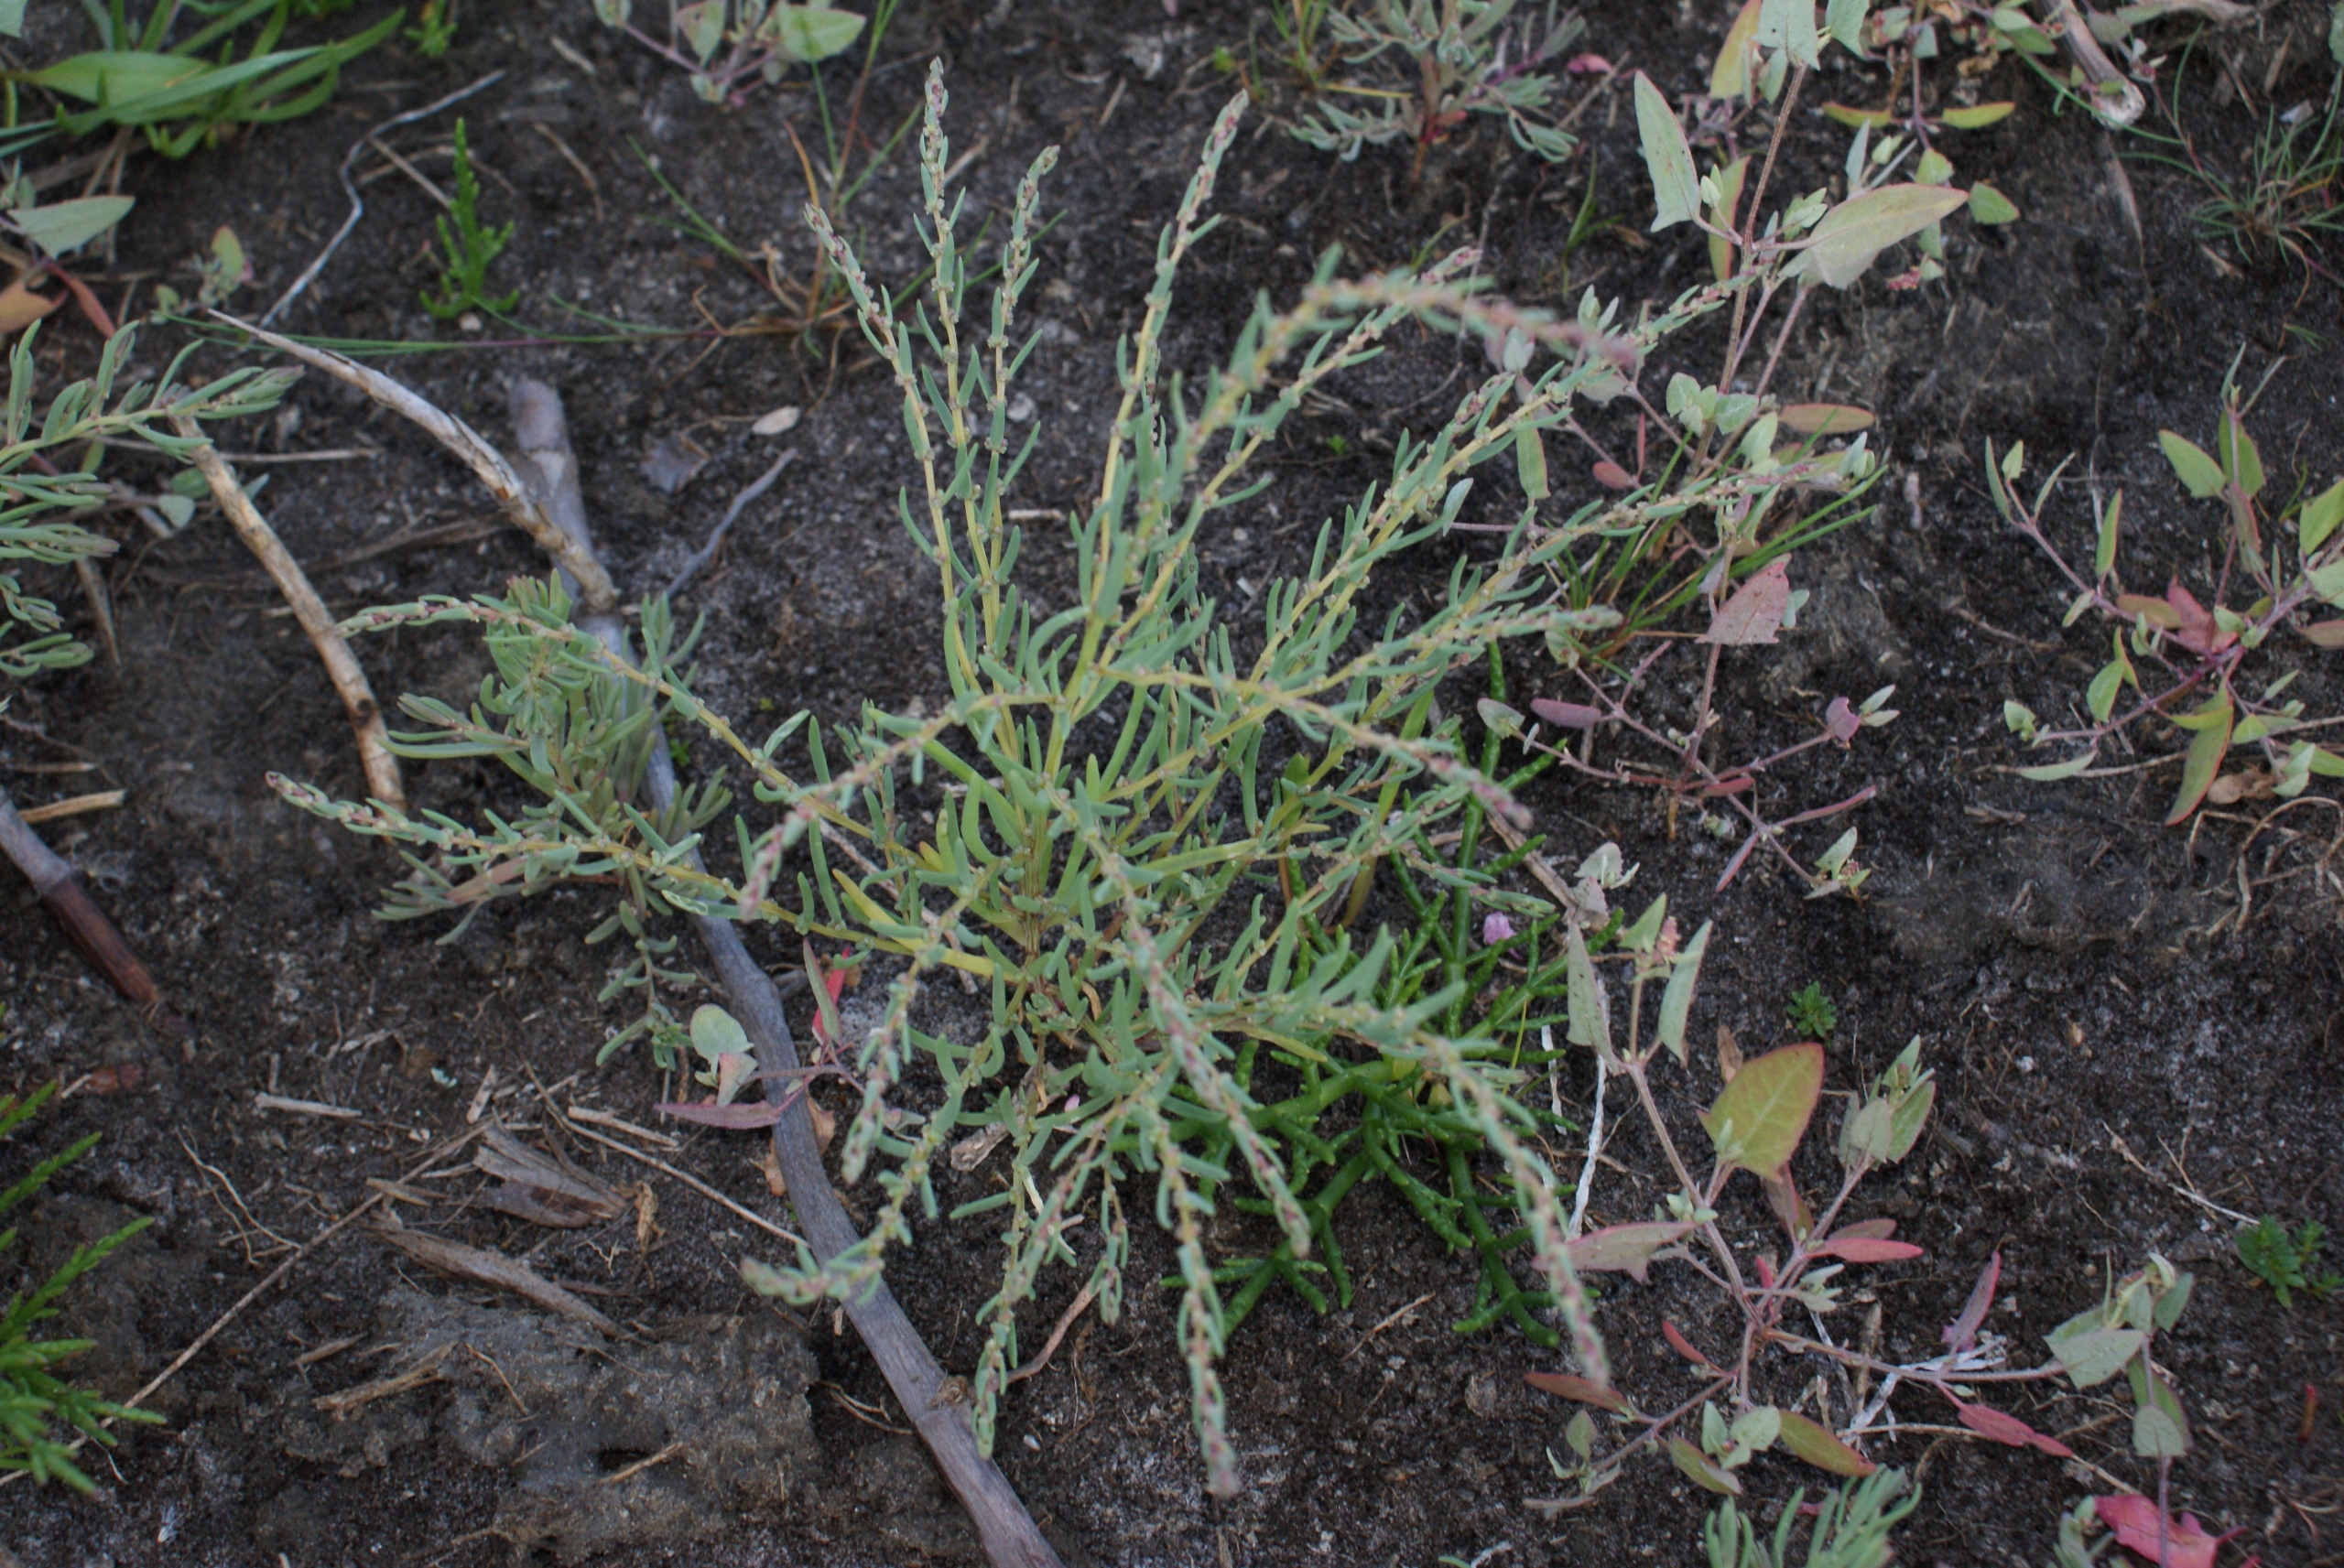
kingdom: Plantae
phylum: Tracheophyta
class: Magnoliopsida
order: Caryophyllales
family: Amaranthaceae
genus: Suaeda
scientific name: Suaeda maritima
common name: Strandgåsefod
